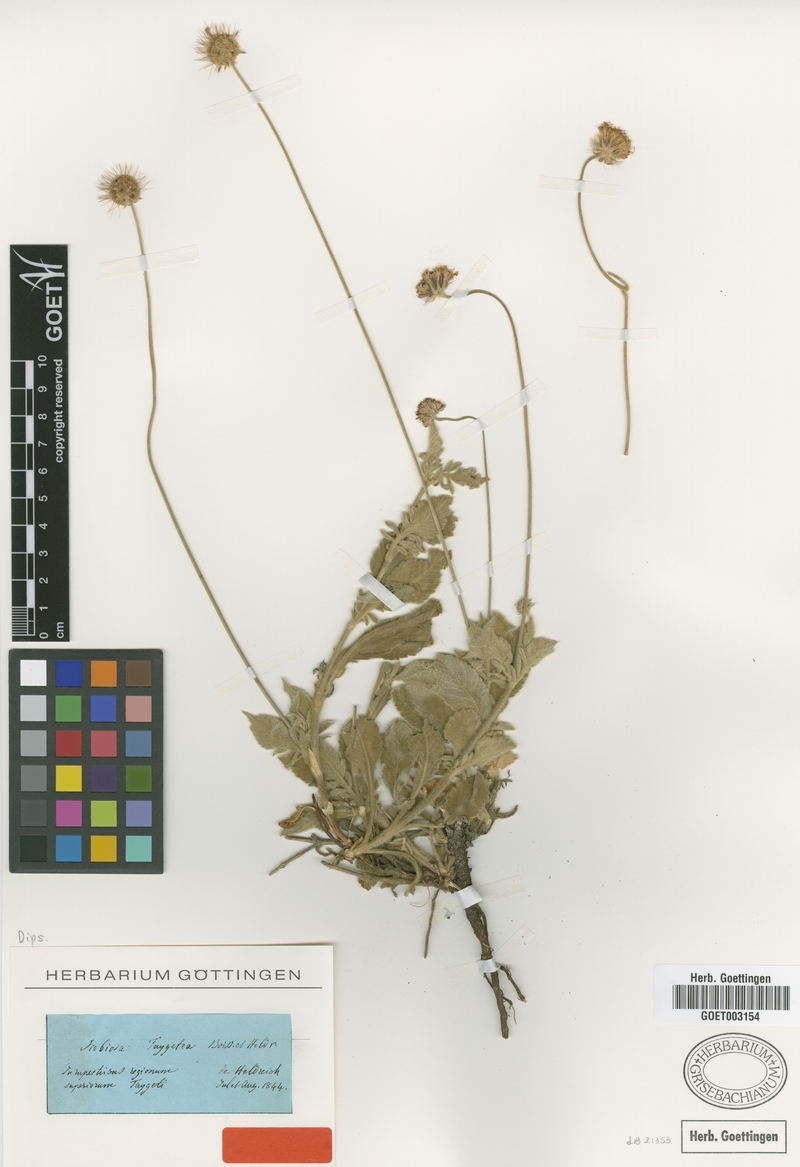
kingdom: Plantae
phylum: Tracheophyta
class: Magnoliopsida
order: Dipsacales
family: Caprifoliaceae
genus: Scabiosa
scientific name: Scabiosa taygetea
